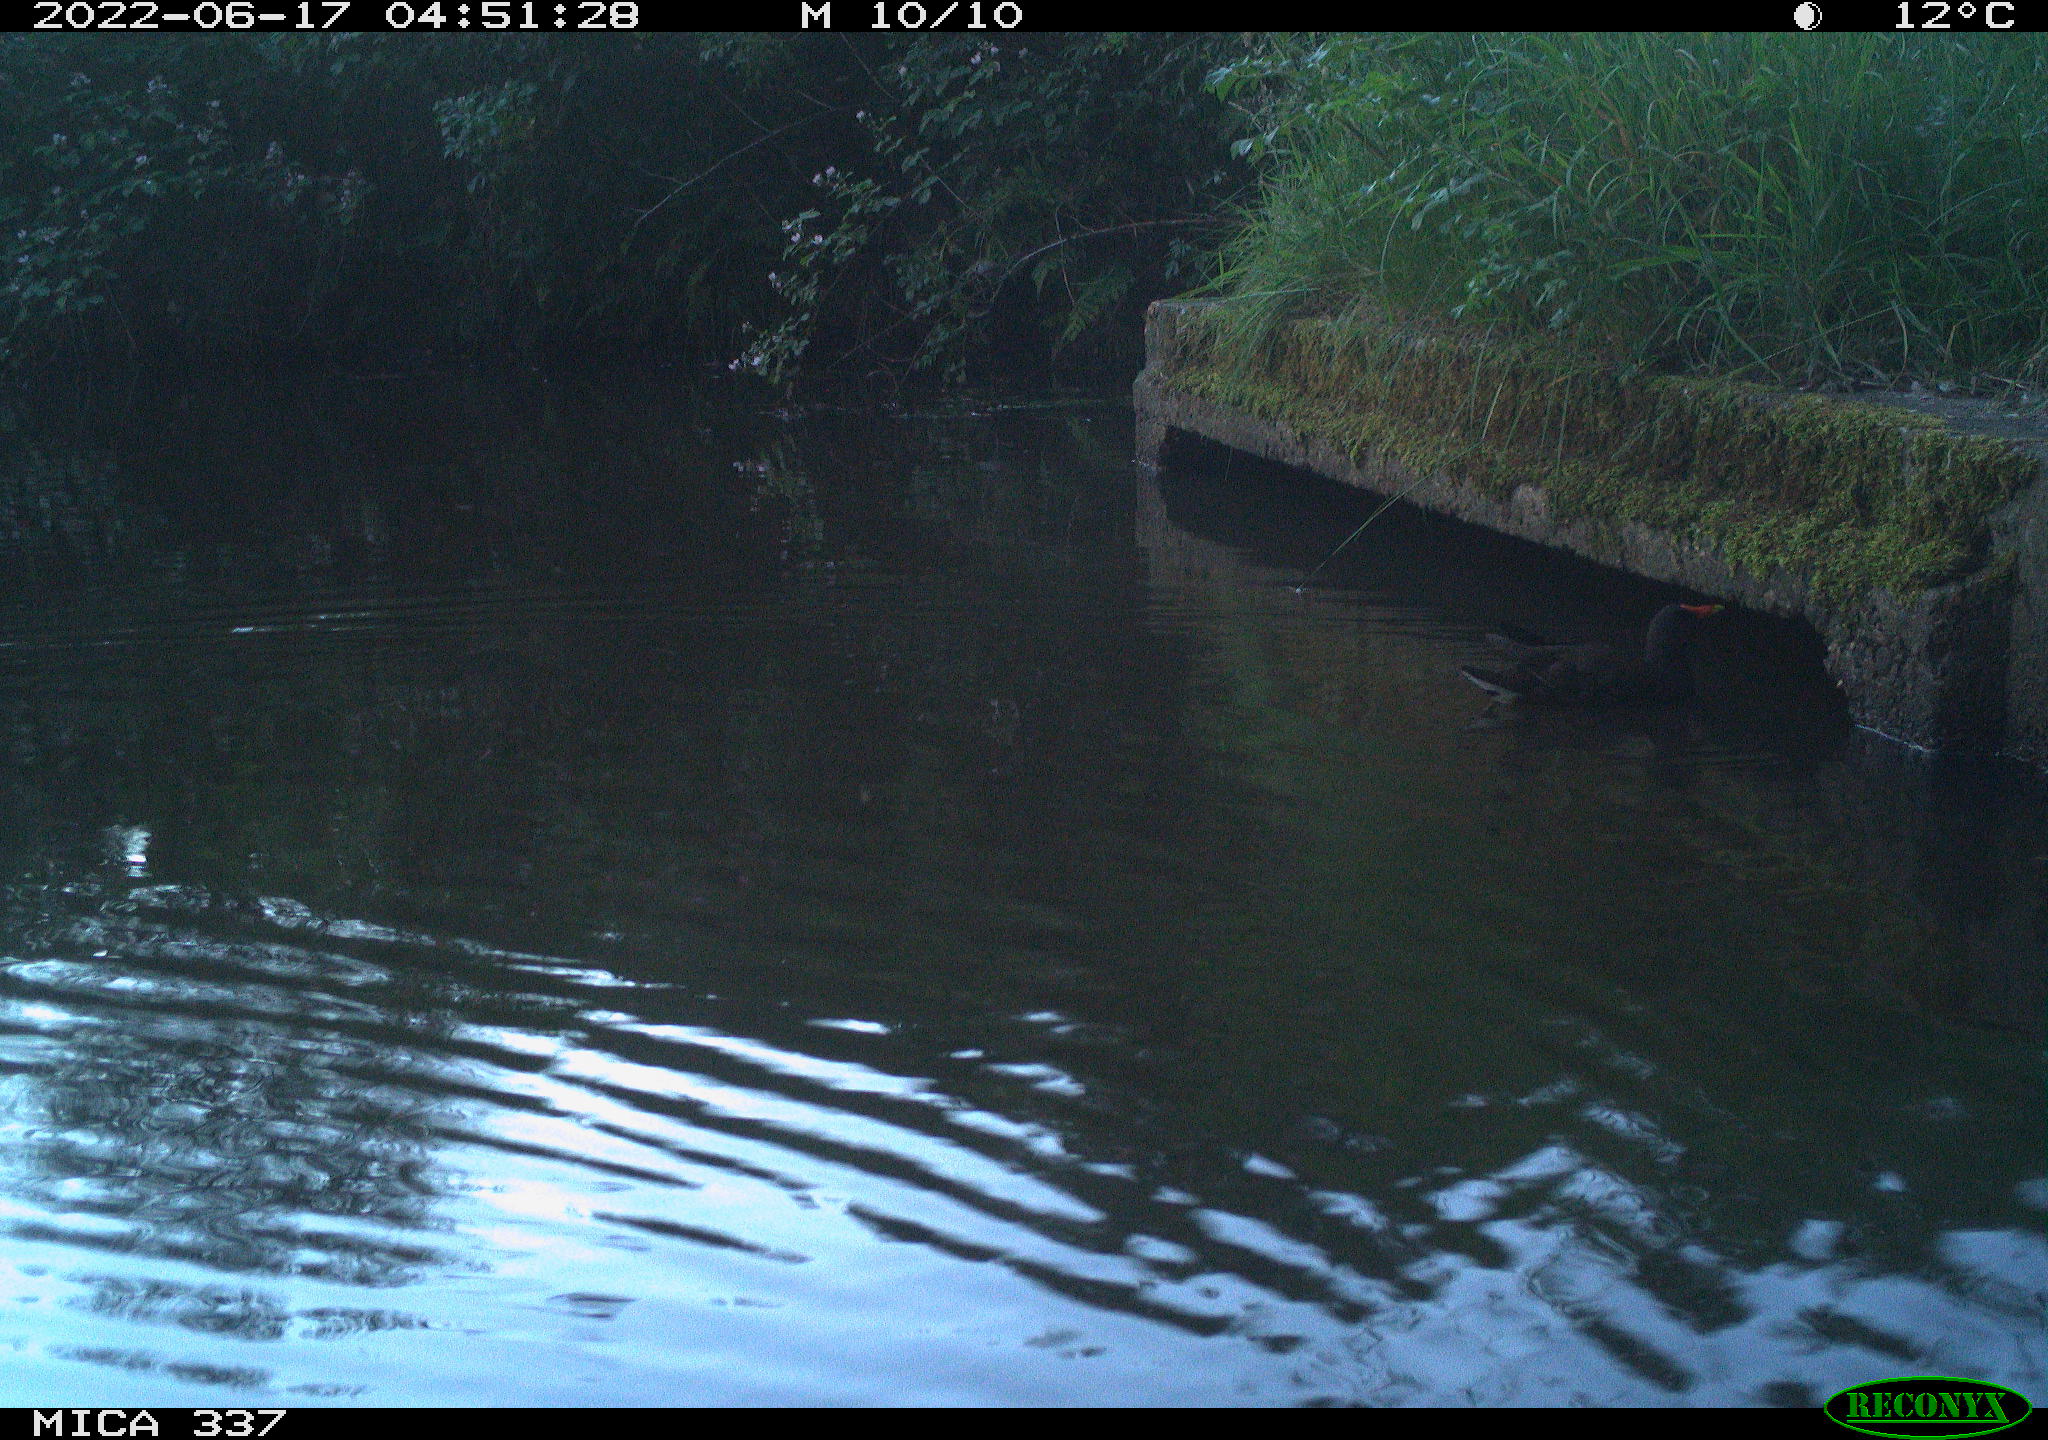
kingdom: Animalia
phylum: Chordata
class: Aves
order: Gruiformes
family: Rallidae
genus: Gallinula
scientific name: Gallinula chloropus
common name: Common moorhen
